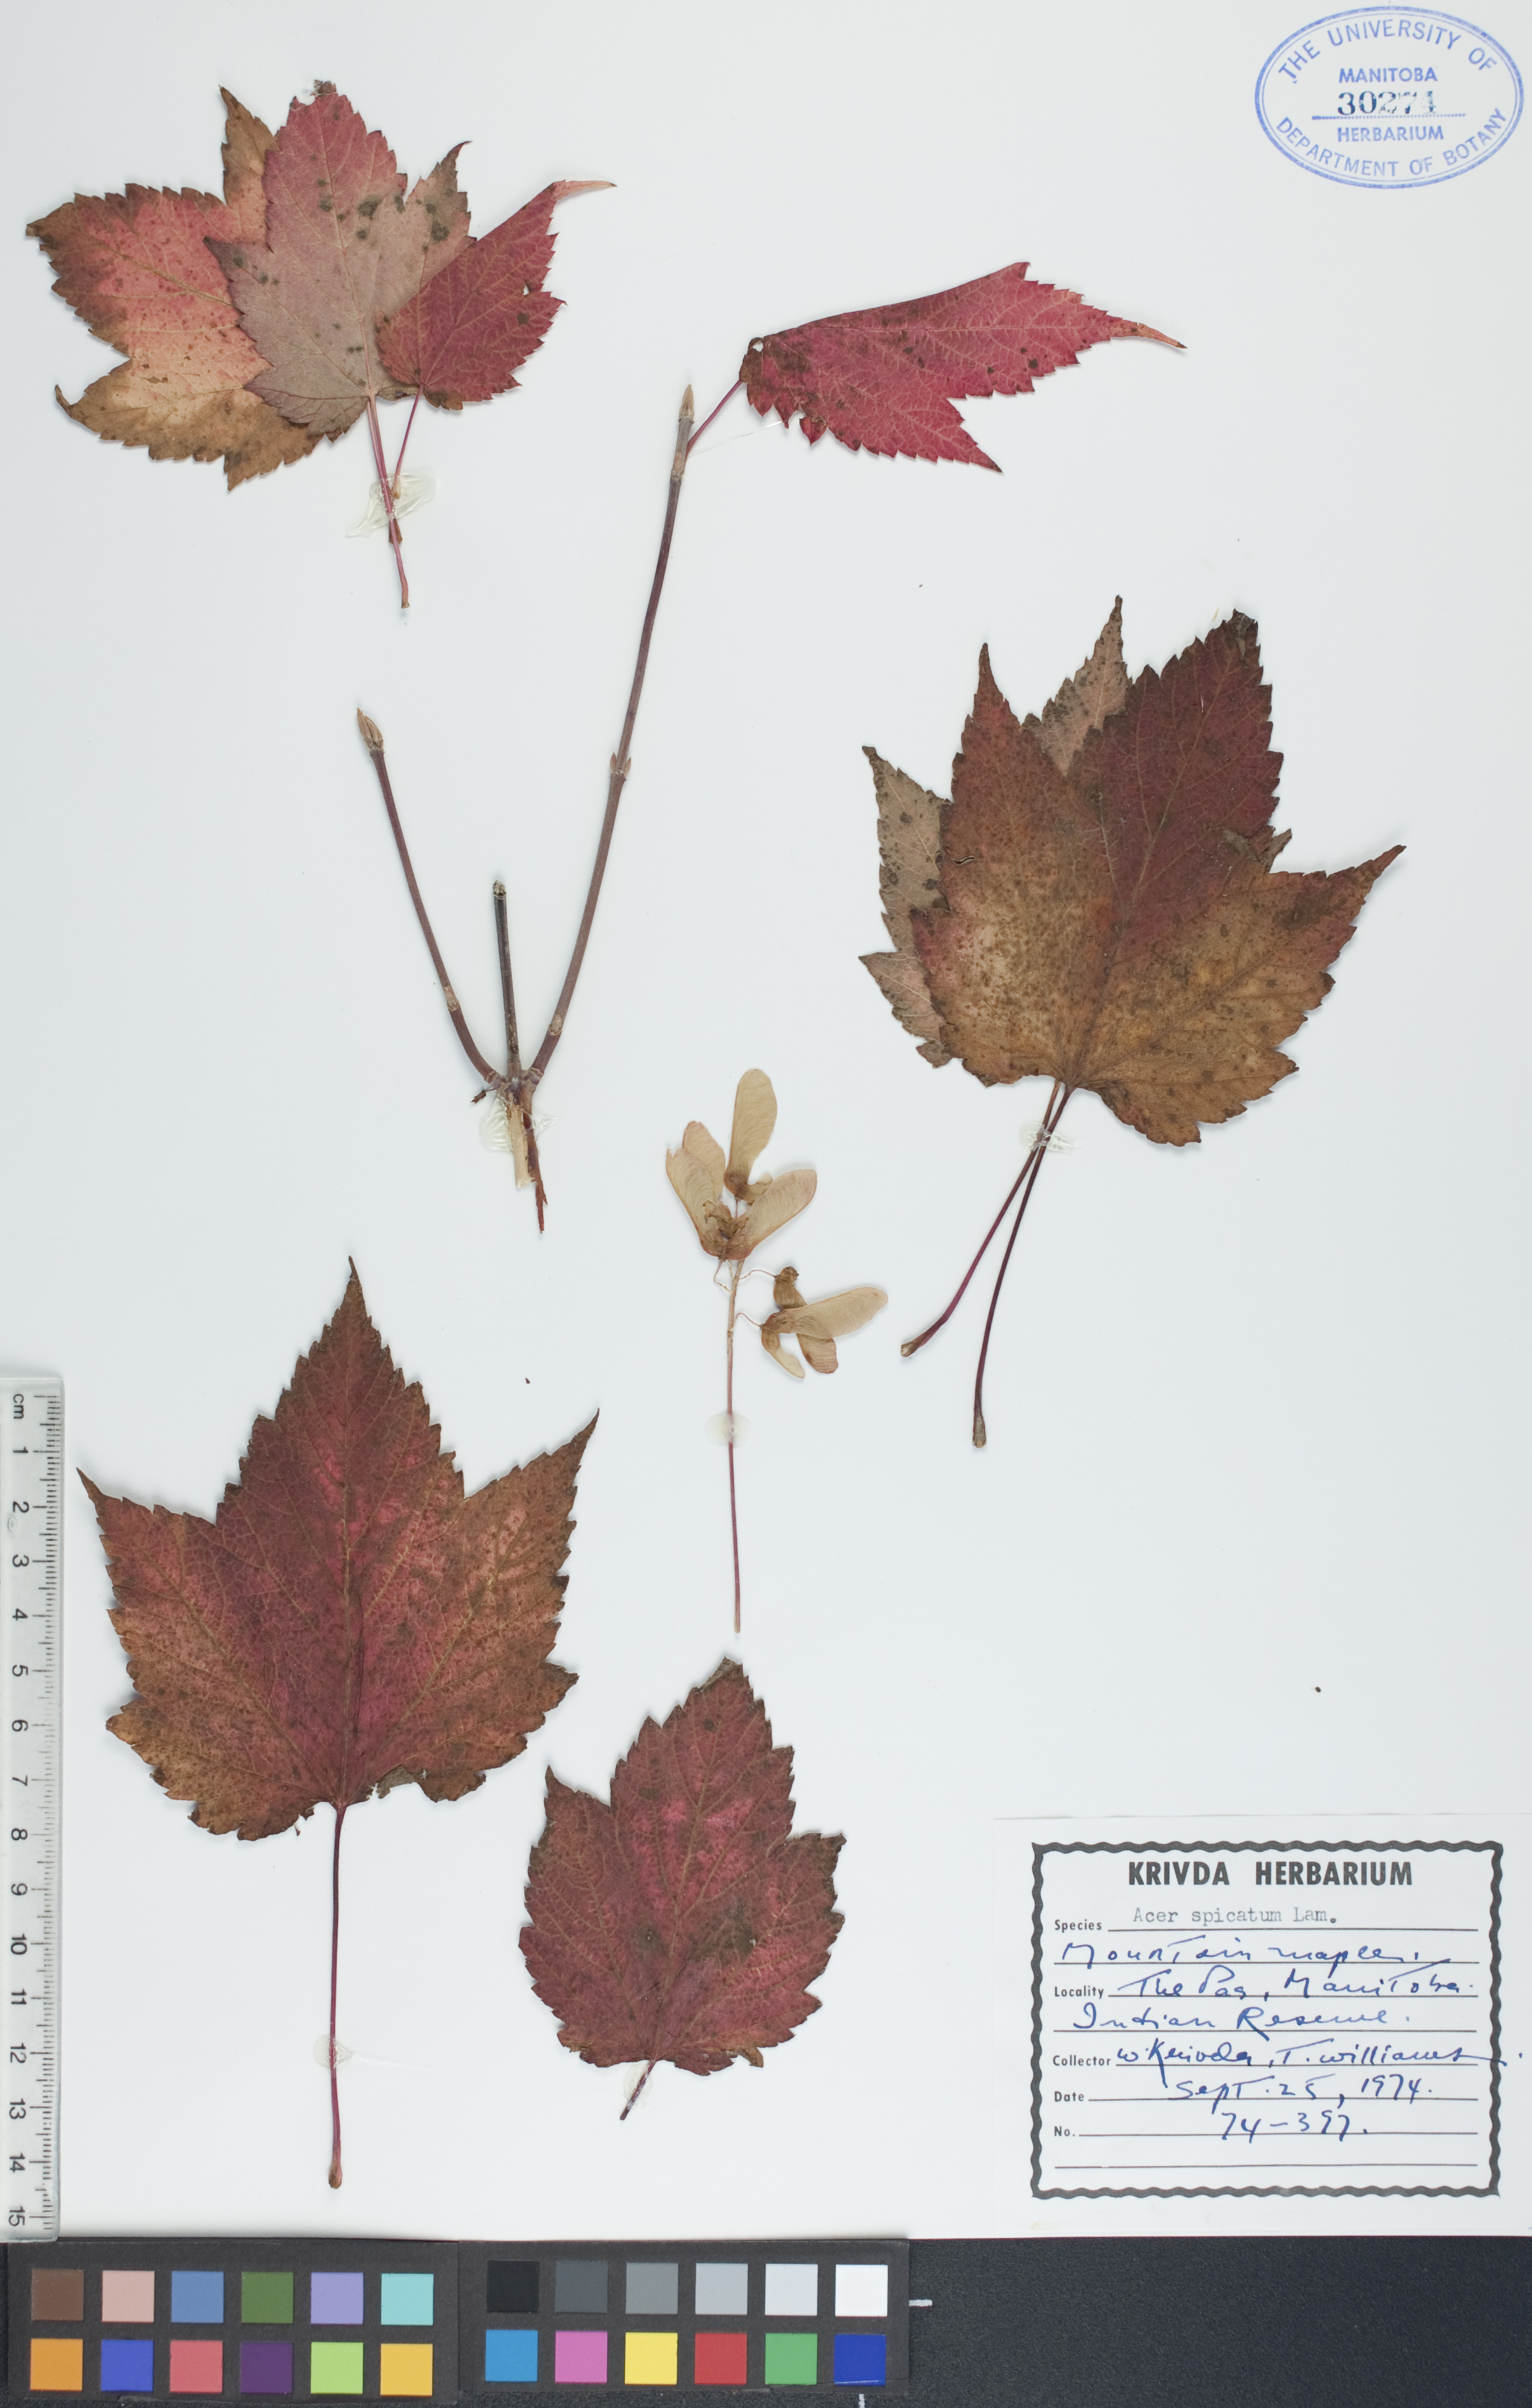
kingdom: Plantae
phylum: Tracheophyta
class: Magnoliopsida
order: Sapindales
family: Sapindaceae
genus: Acer
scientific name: Acer spicatum
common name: Mountain maple
